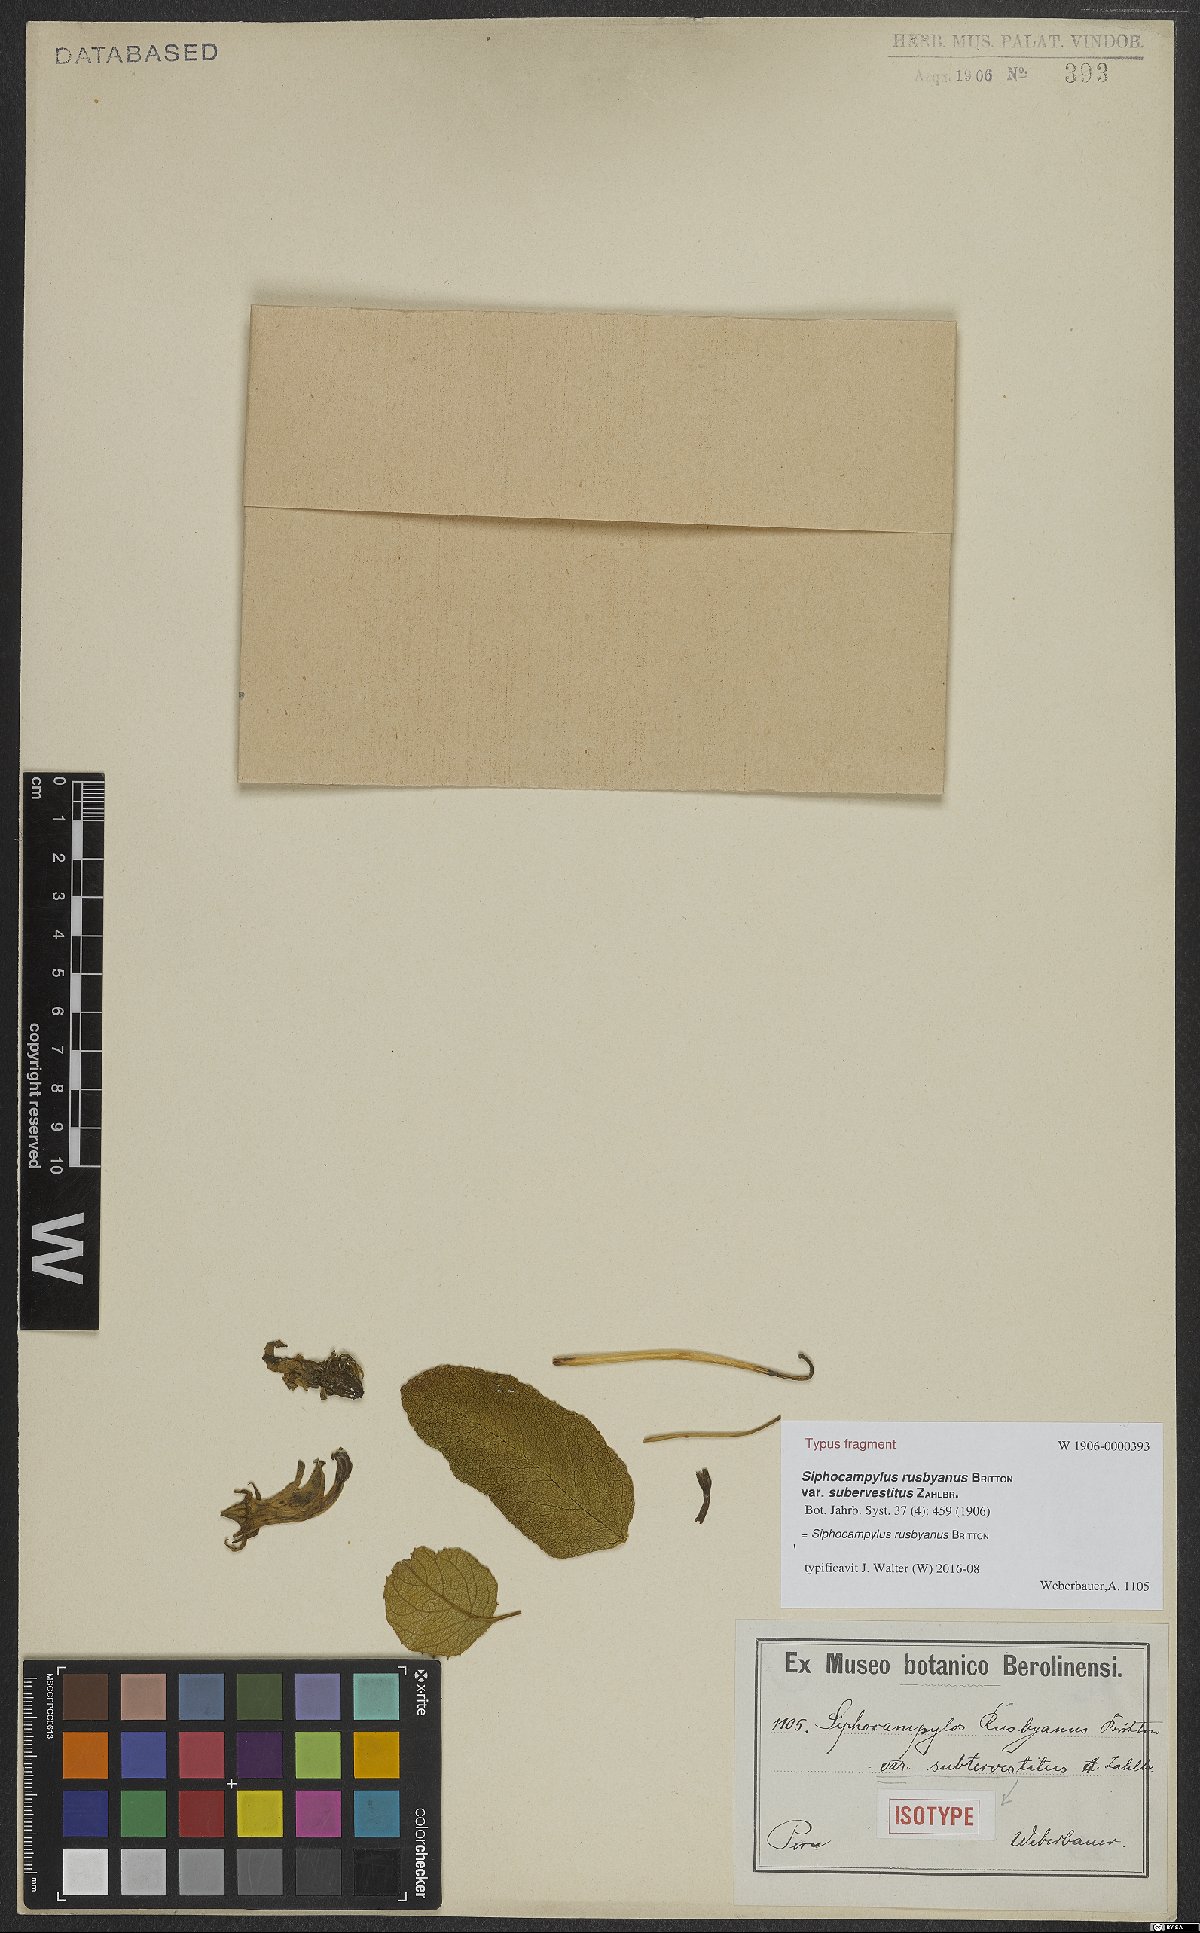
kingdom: Plantae
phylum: Tracheophyta
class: Magnoliopsida
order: Asterales
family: Campanulaceae
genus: Siphocampylus
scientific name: Siphocampylus rusbyanus
